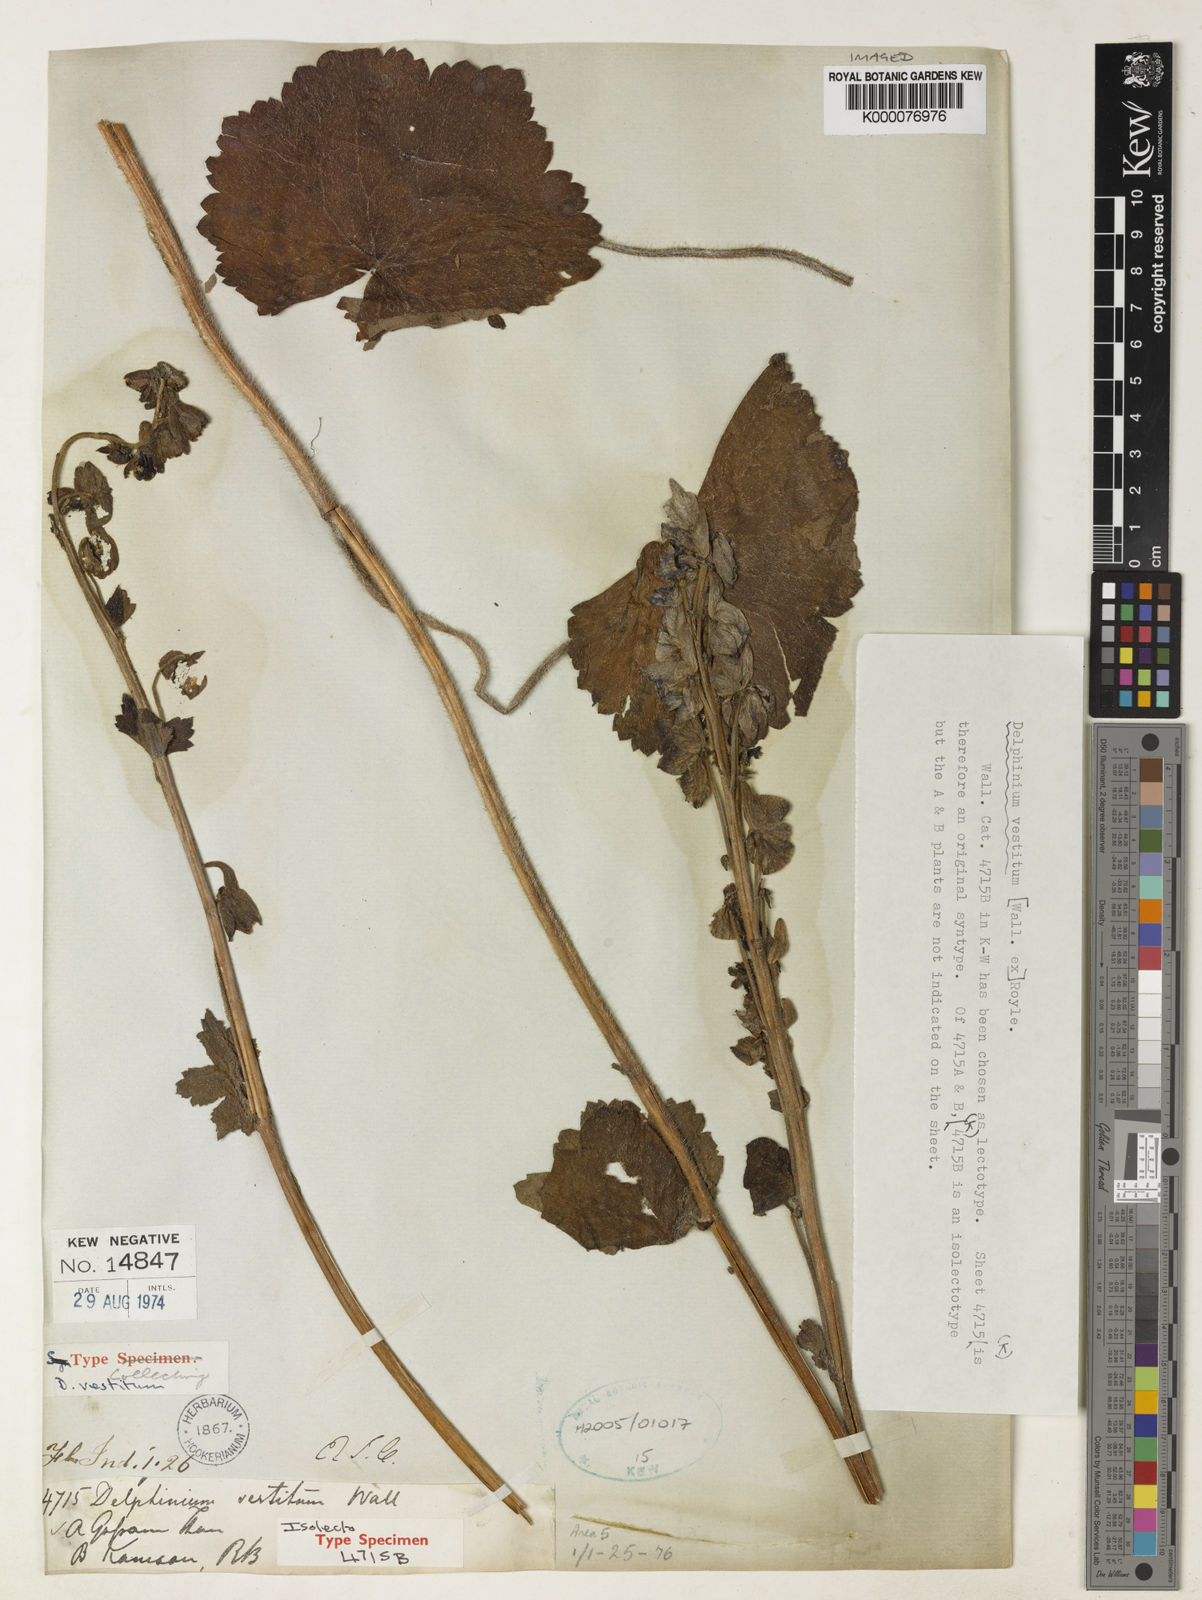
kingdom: Plantae
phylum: Tracheophyta
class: Magnoliopsida
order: Ranunculales
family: Ranunculaceae
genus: Delphinium
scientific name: Delphinium
